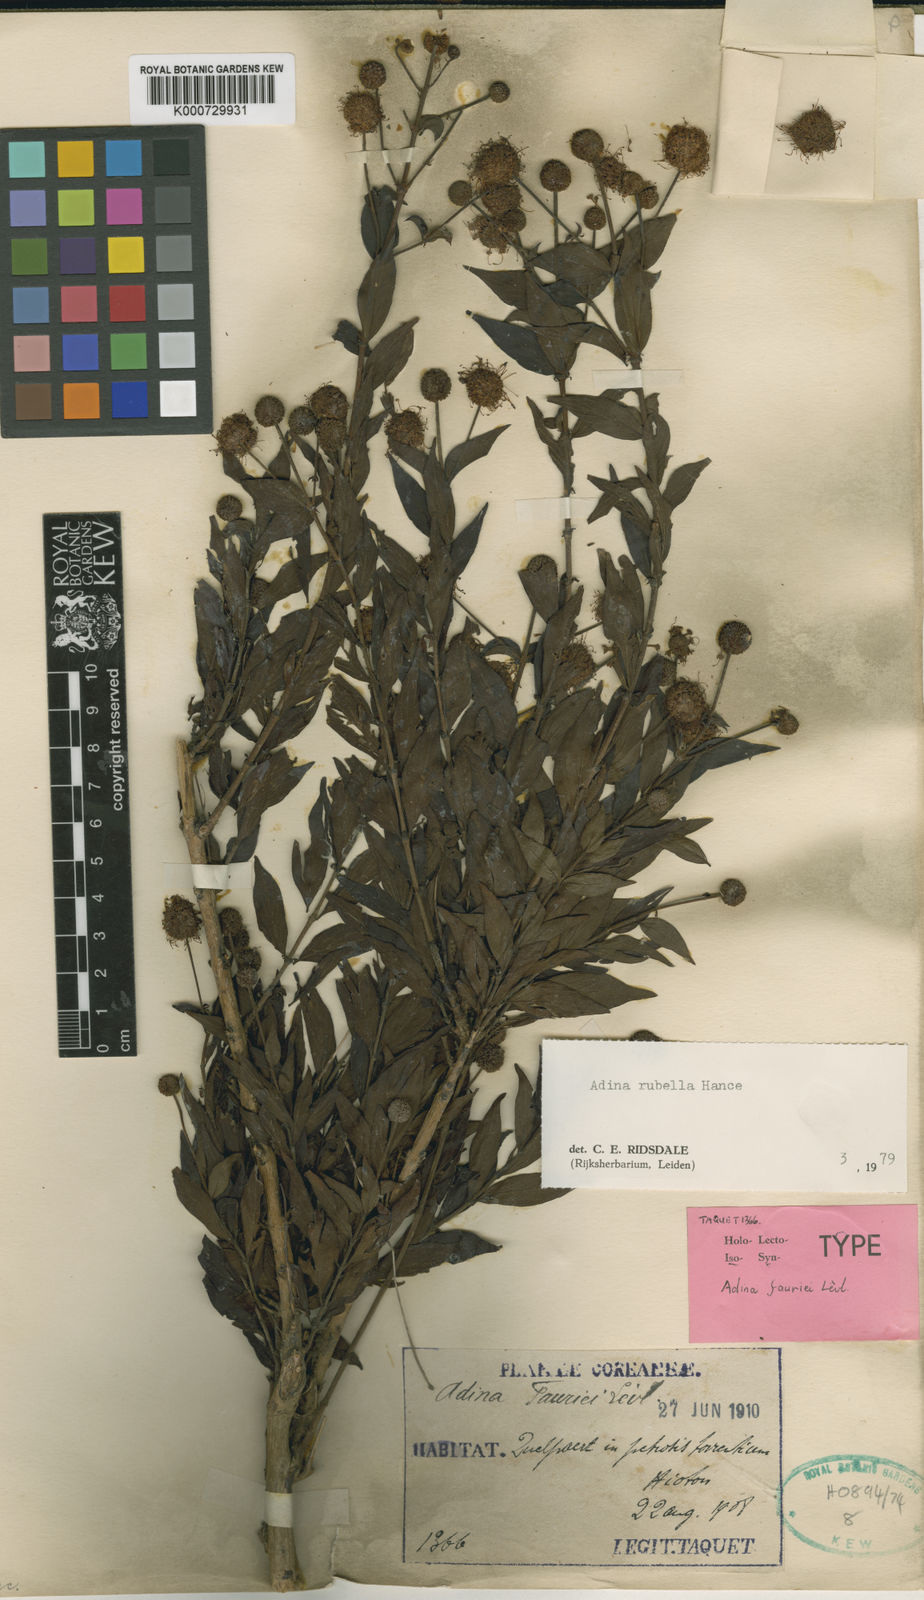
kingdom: Plantae
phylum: Tracheophyta
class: Magnoliopsida
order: Gentianales
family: Rubiaceae
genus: Adina
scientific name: Adina rubella
